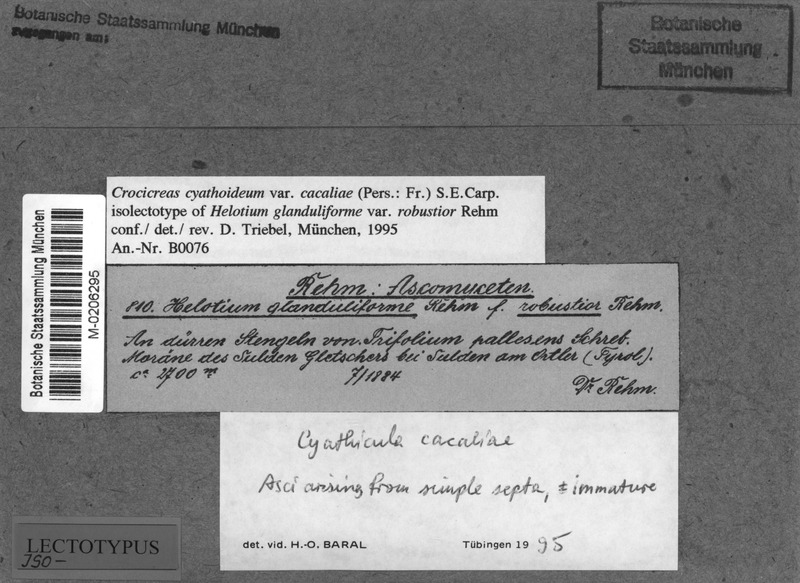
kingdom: Fungi
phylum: Ascomycota
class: Leotiomycetes
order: Helotiales
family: Helotiaceae
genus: Cyathicula
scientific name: Cyathicula cyathoidea
